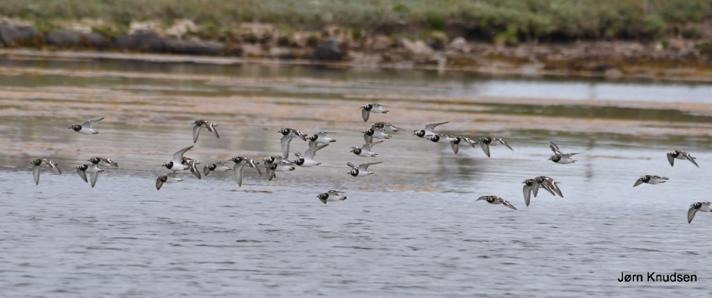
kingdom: Animalia
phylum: Chordata
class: Aves
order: Charadriiformes
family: Scolopacidae
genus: Arenaria
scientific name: Arenaria interpres
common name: Stenvender
